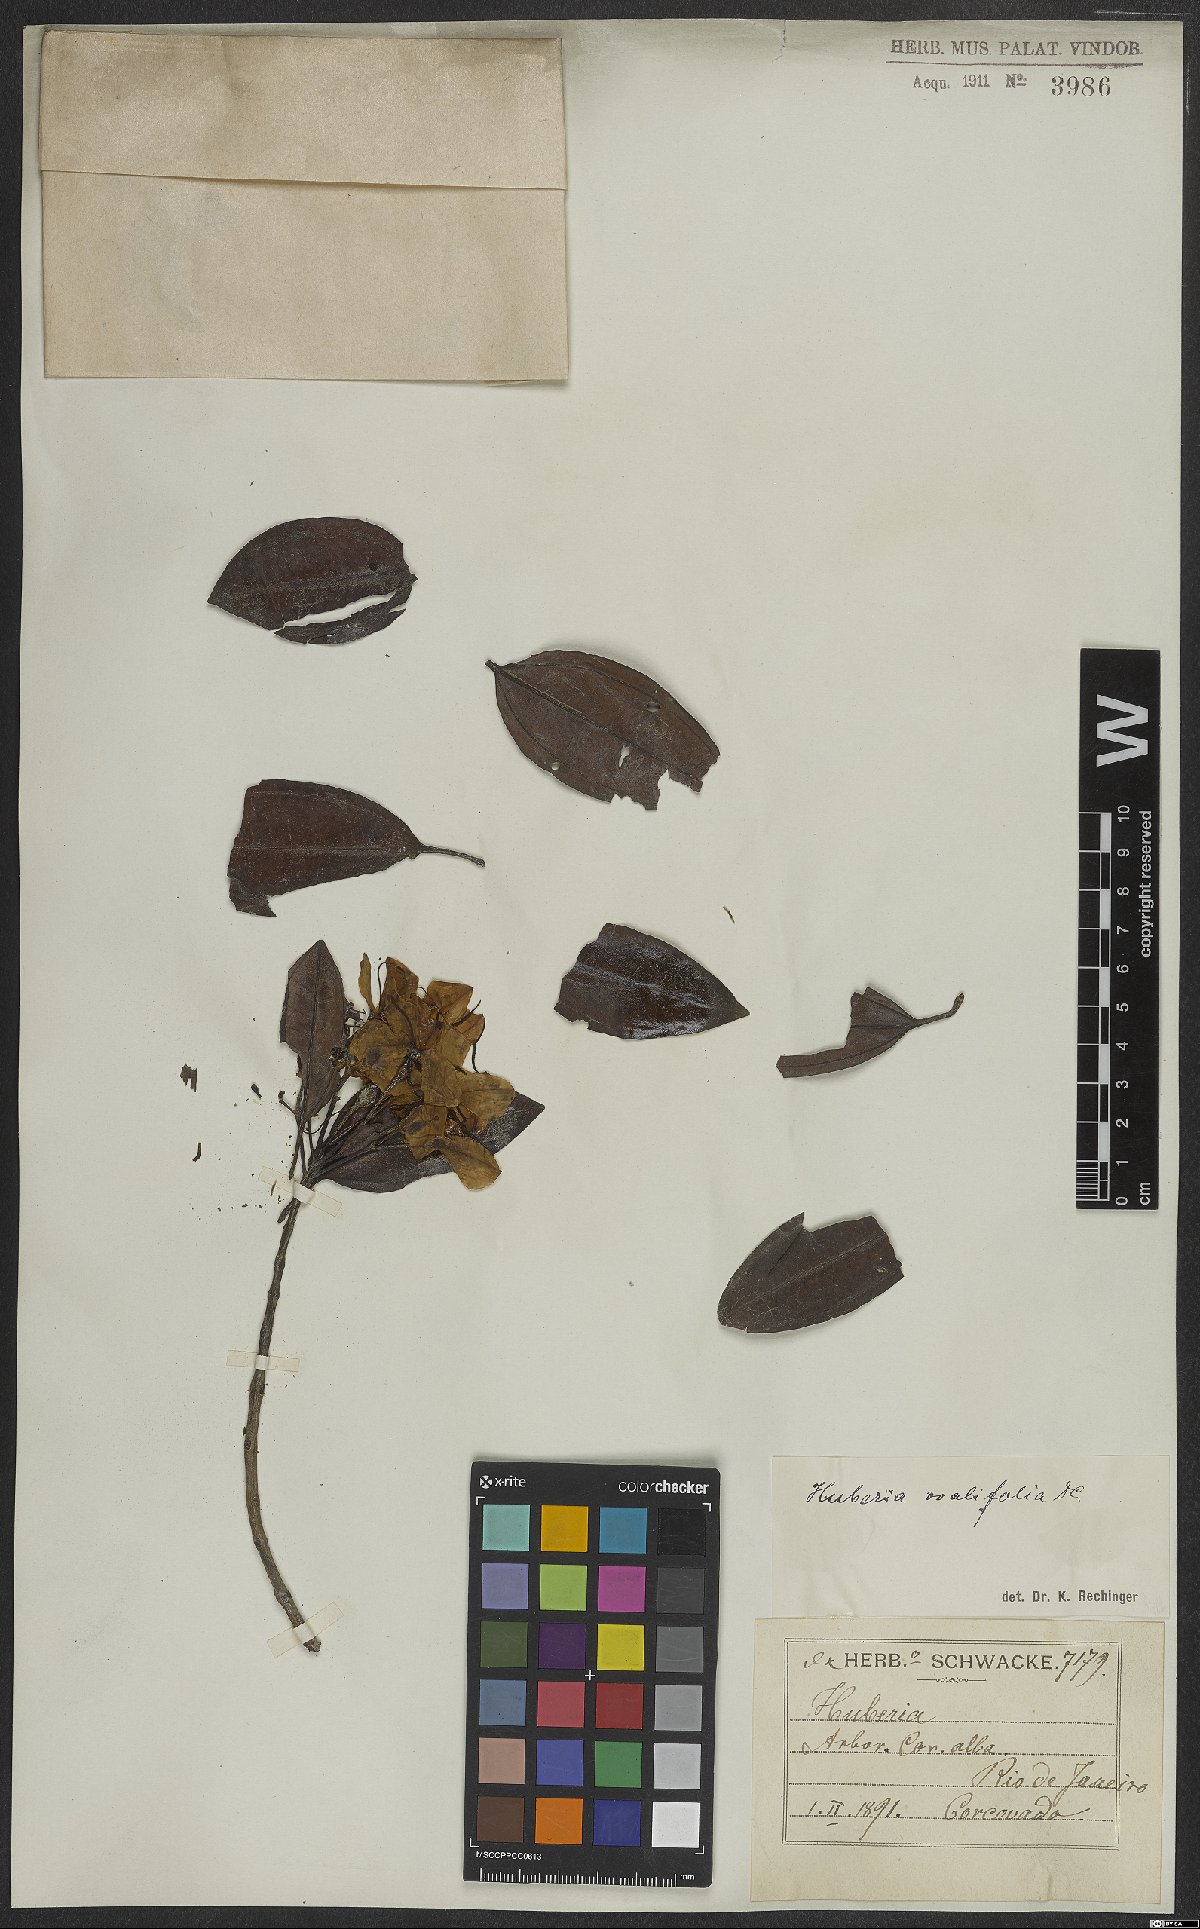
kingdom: Plantae
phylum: Tracheophyta
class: Magnoliopsida
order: Myrtales
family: Melastomataceae
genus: Huberia
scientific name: Huberia ovalifolia
